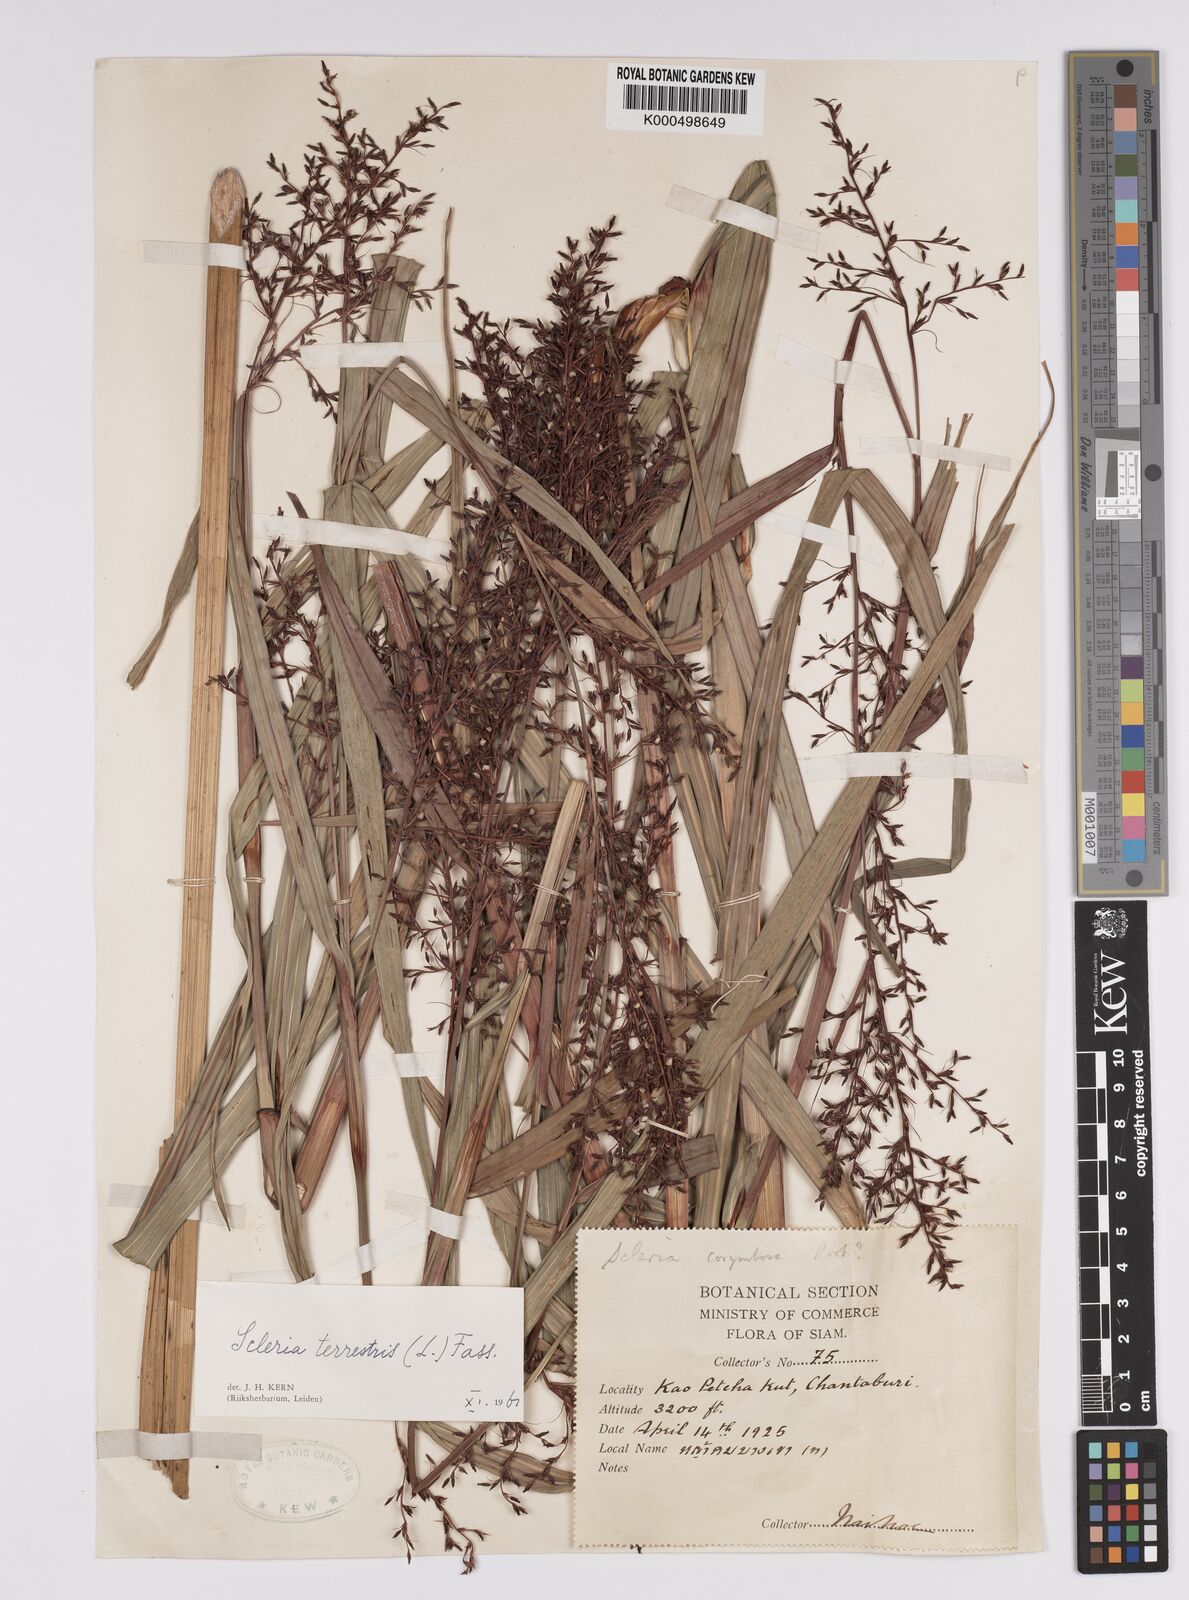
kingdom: Plantae
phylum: Tracheophyta
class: Liliopsida
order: Poales
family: Cyperaceae
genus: Scleria
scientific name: Scleria terrestris
